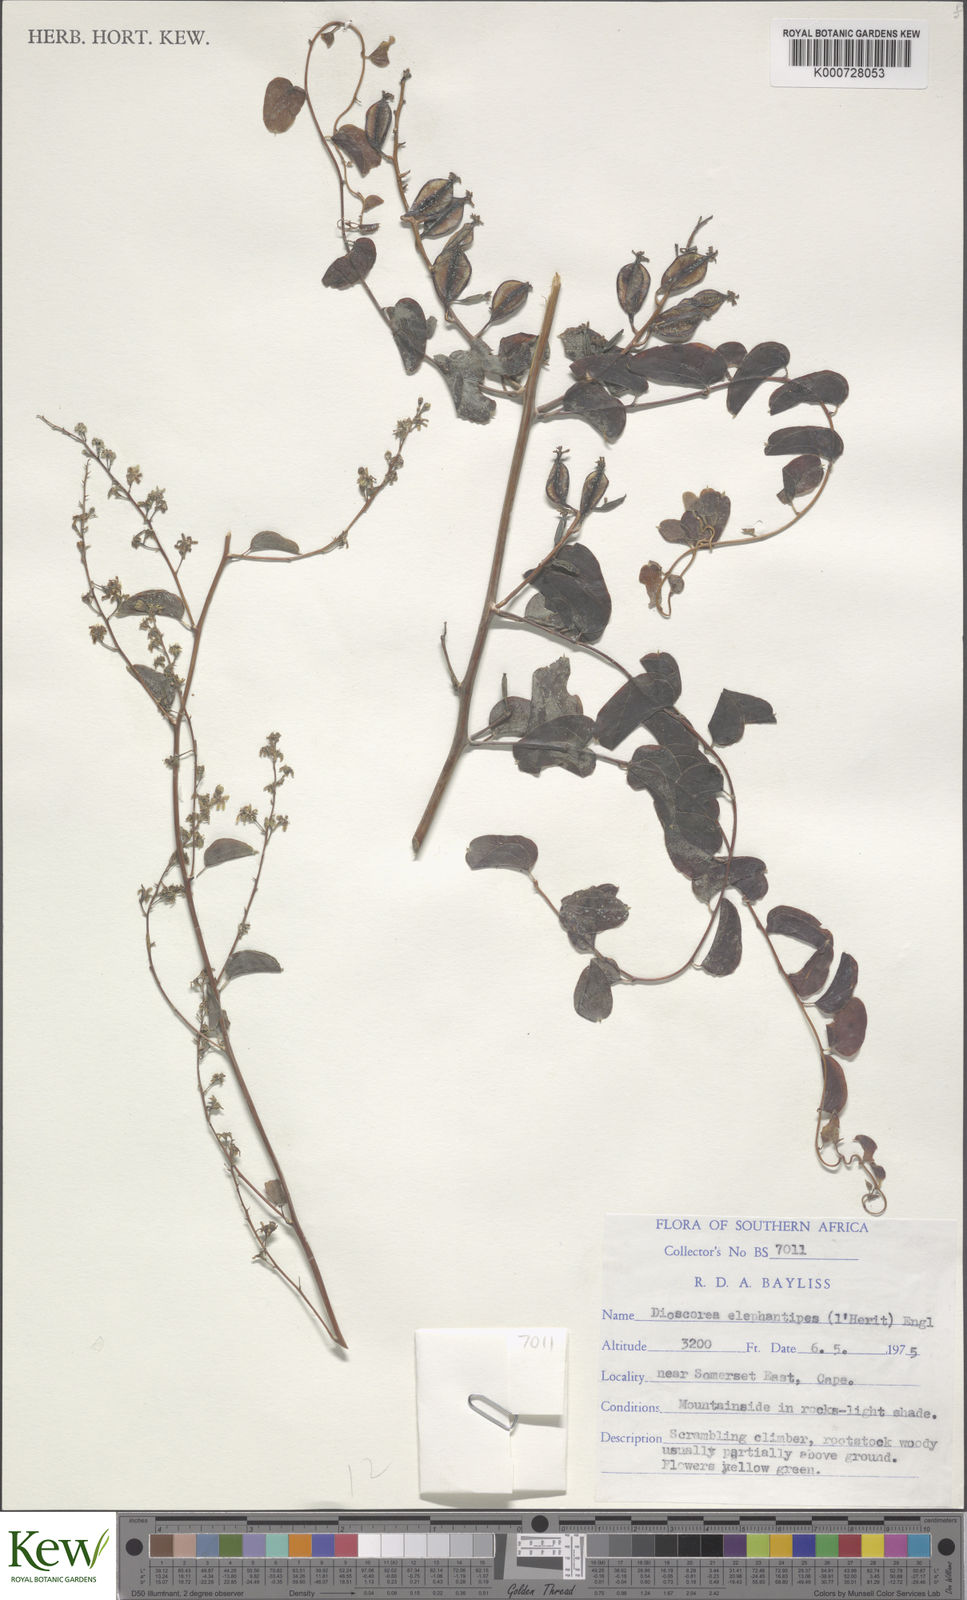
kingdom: Plantae
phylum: Tracheophyta
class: Liliopsida
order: Dioscoreales
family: Dioscoreaceae
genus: Dioscorea
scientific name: Dioscorea
